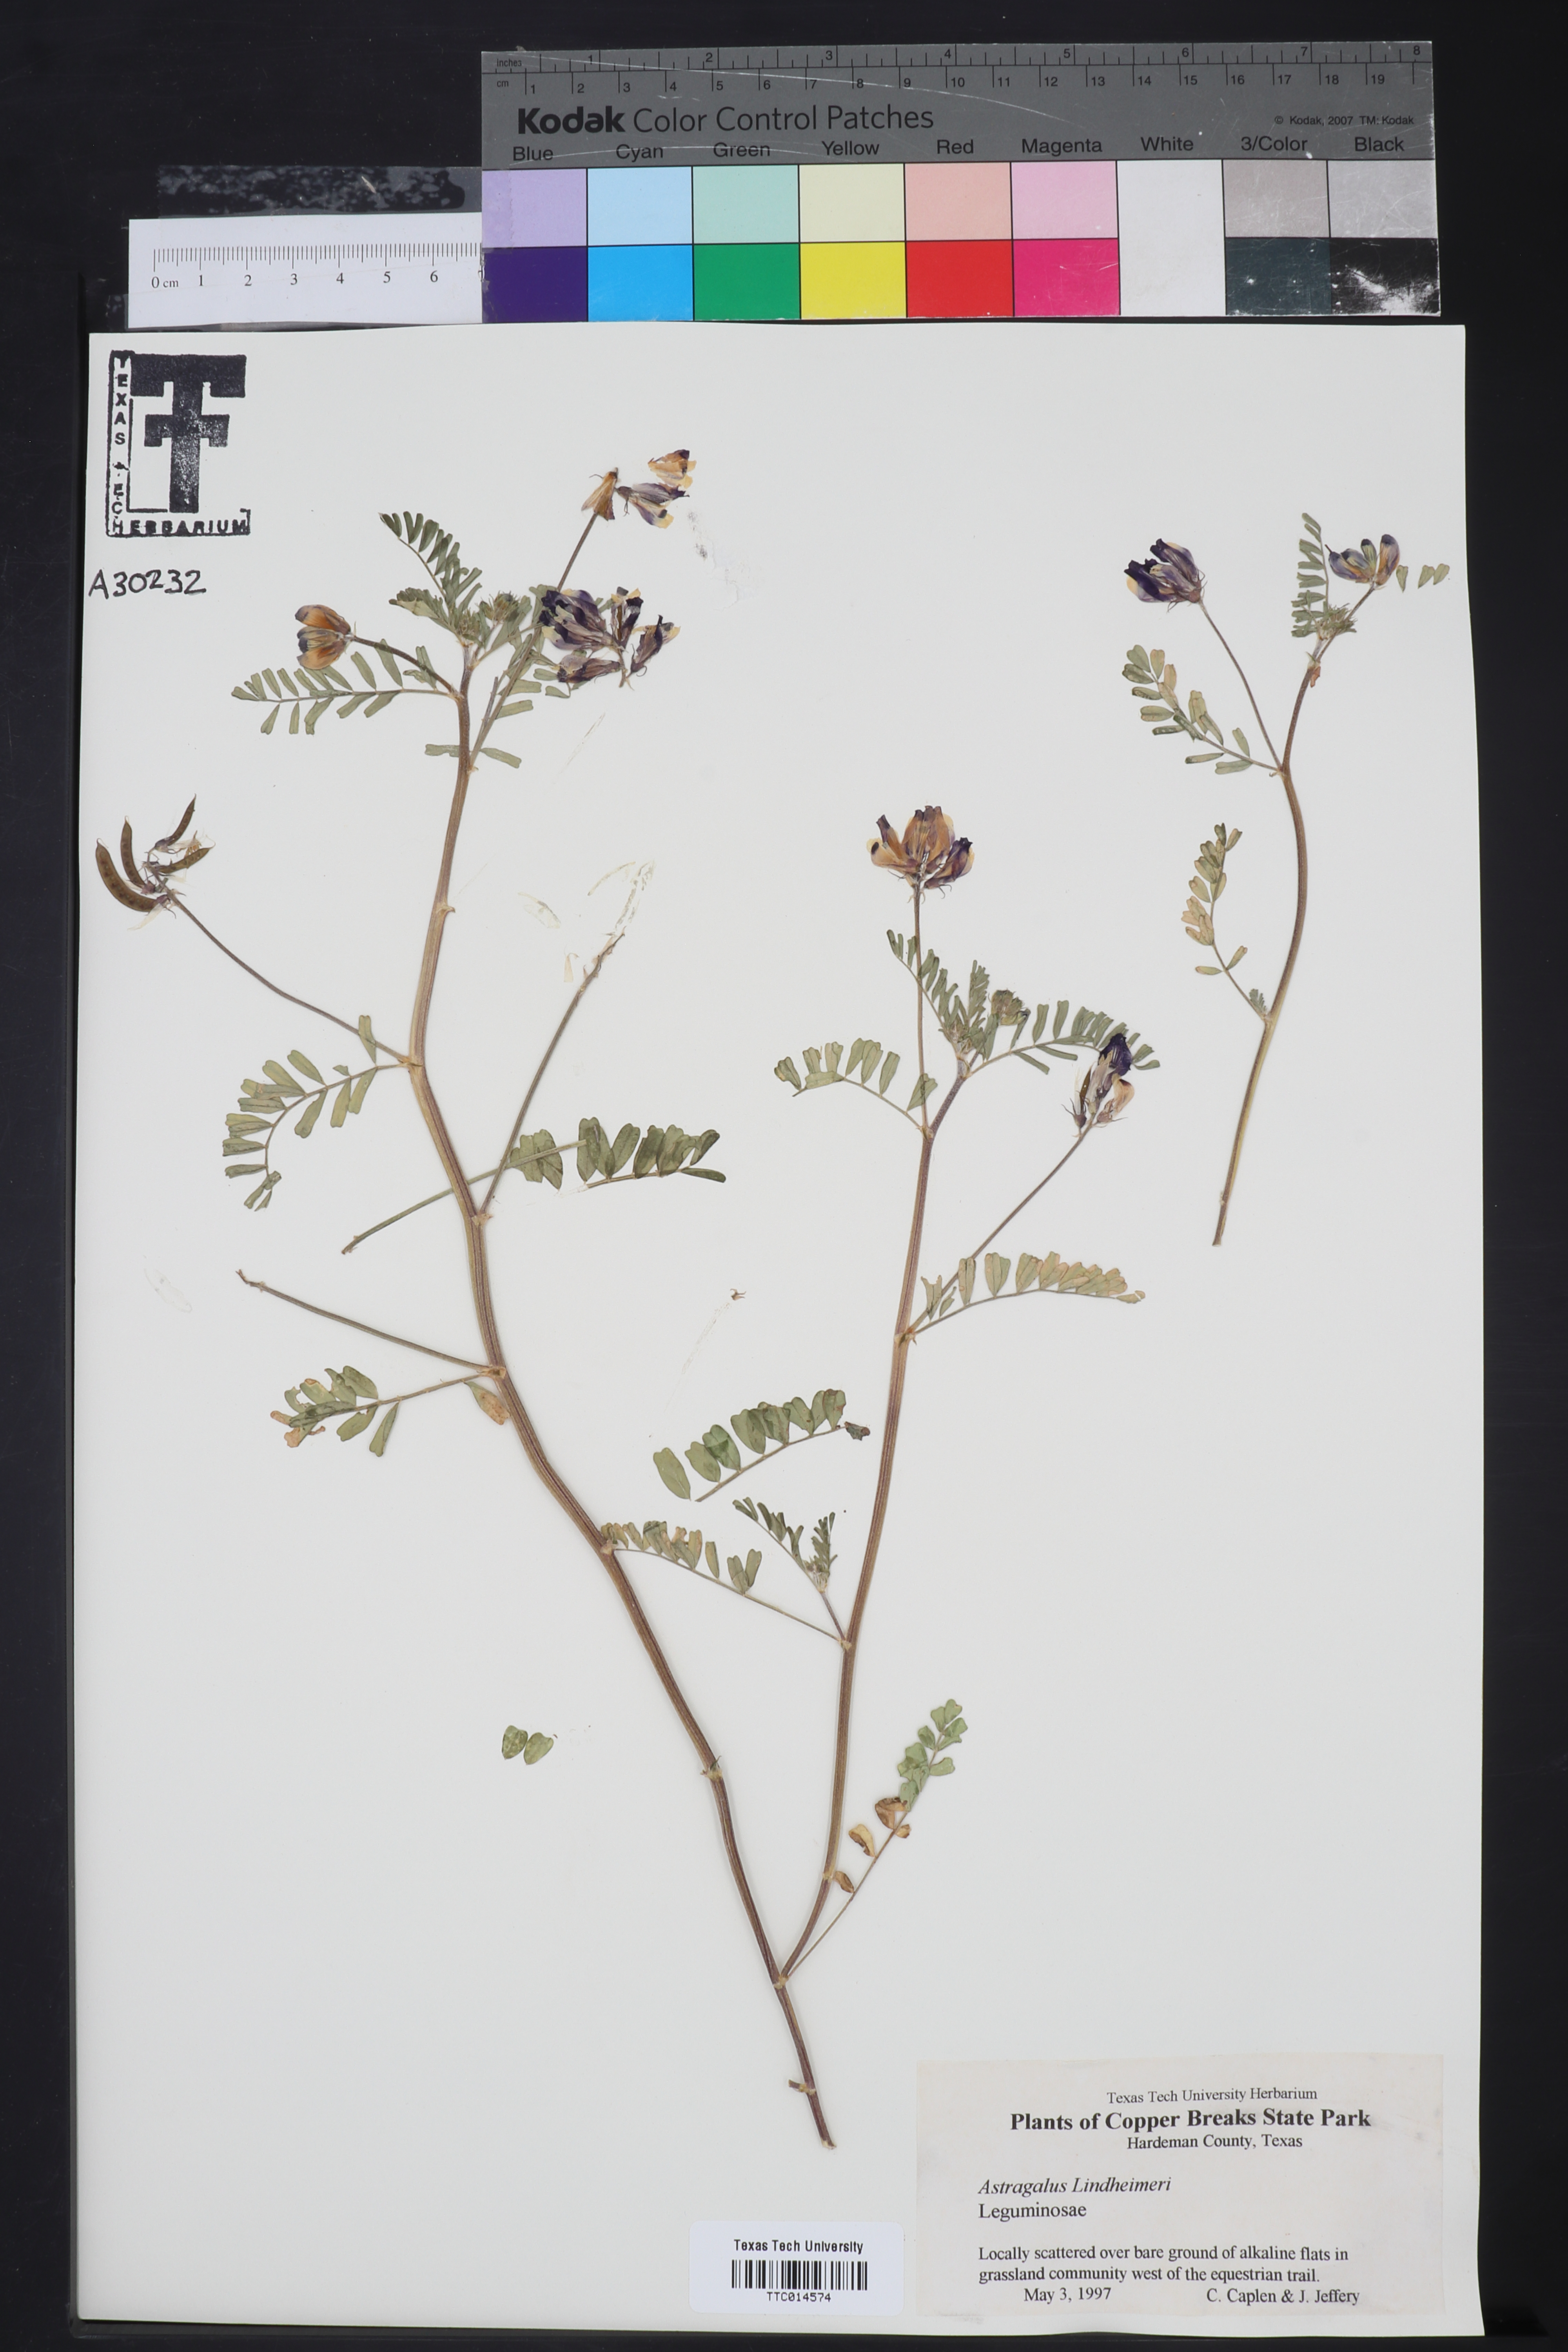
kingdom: Plantae
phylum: Tracheophyta
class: Magnoliopsida
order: Fabales
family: Fabaceae
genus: Astragalus
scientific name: Astragalus lindheimeri
